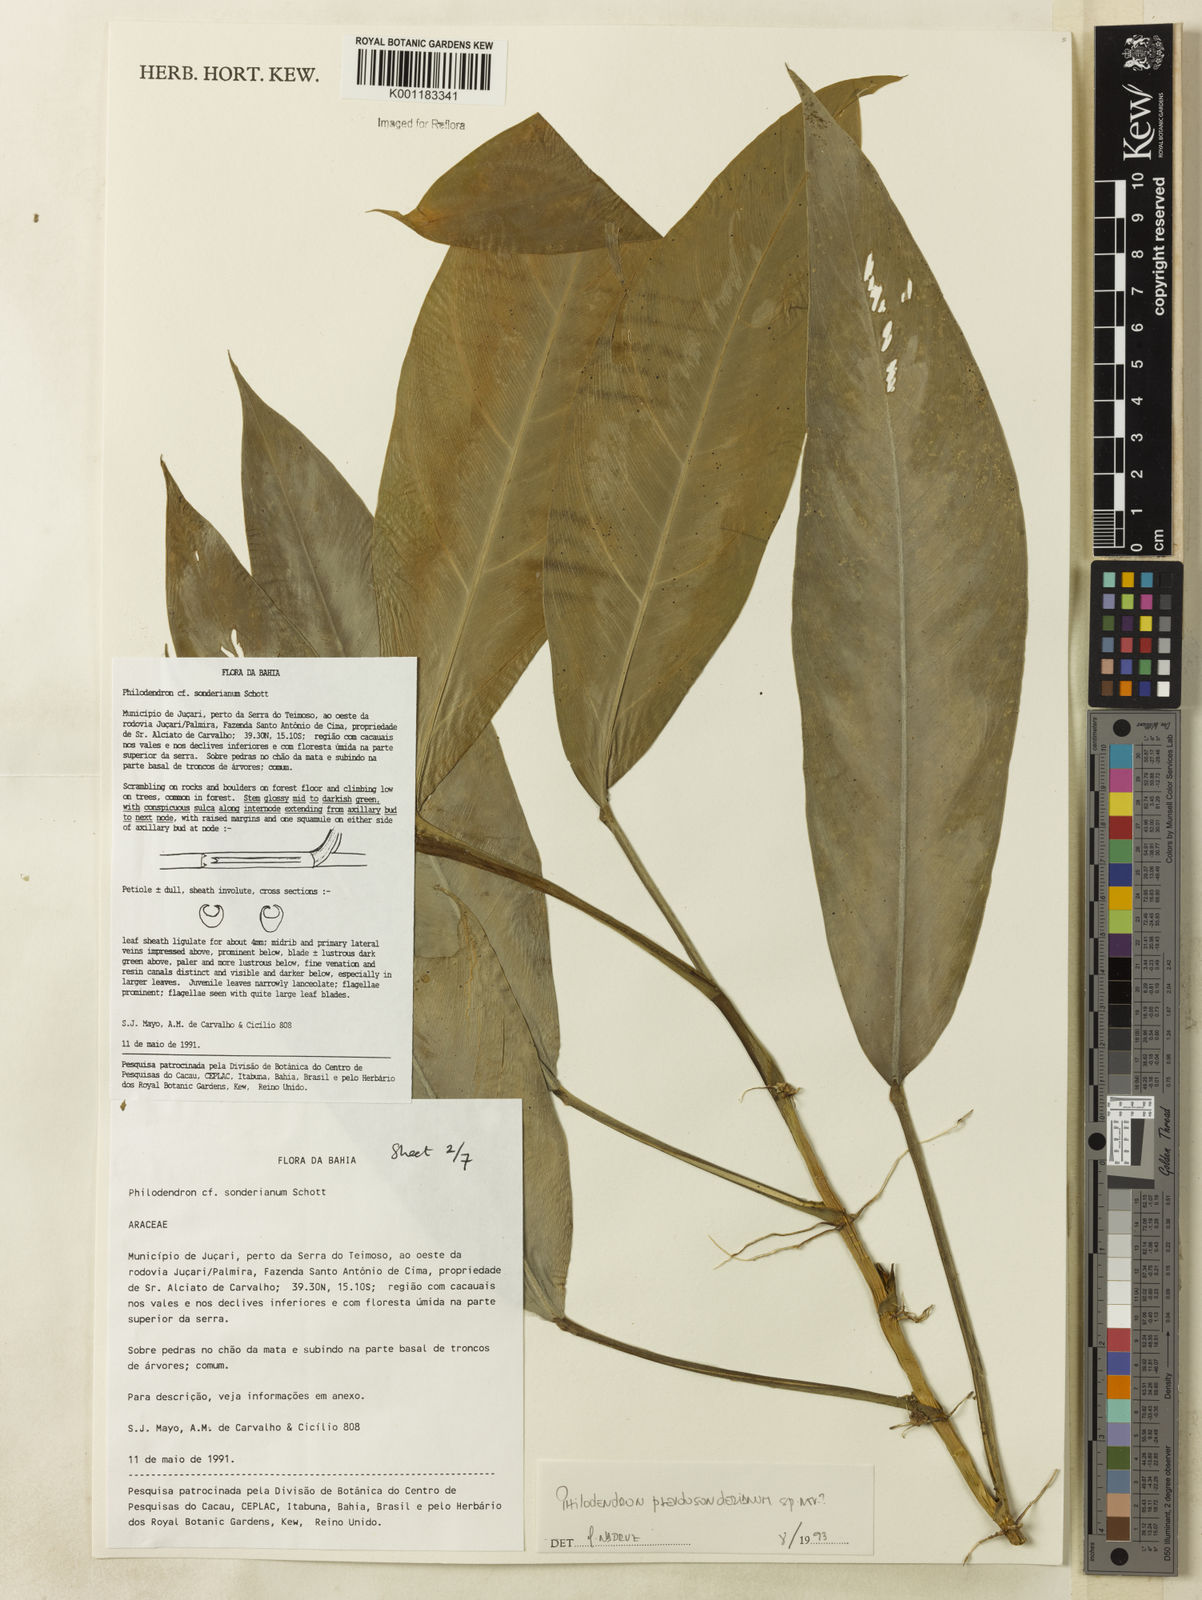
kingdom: Plantae
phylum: Tracheophyta
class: Liliopsida
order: Alismatales
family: Araceae
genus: Philodendron
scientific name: Philodendron
